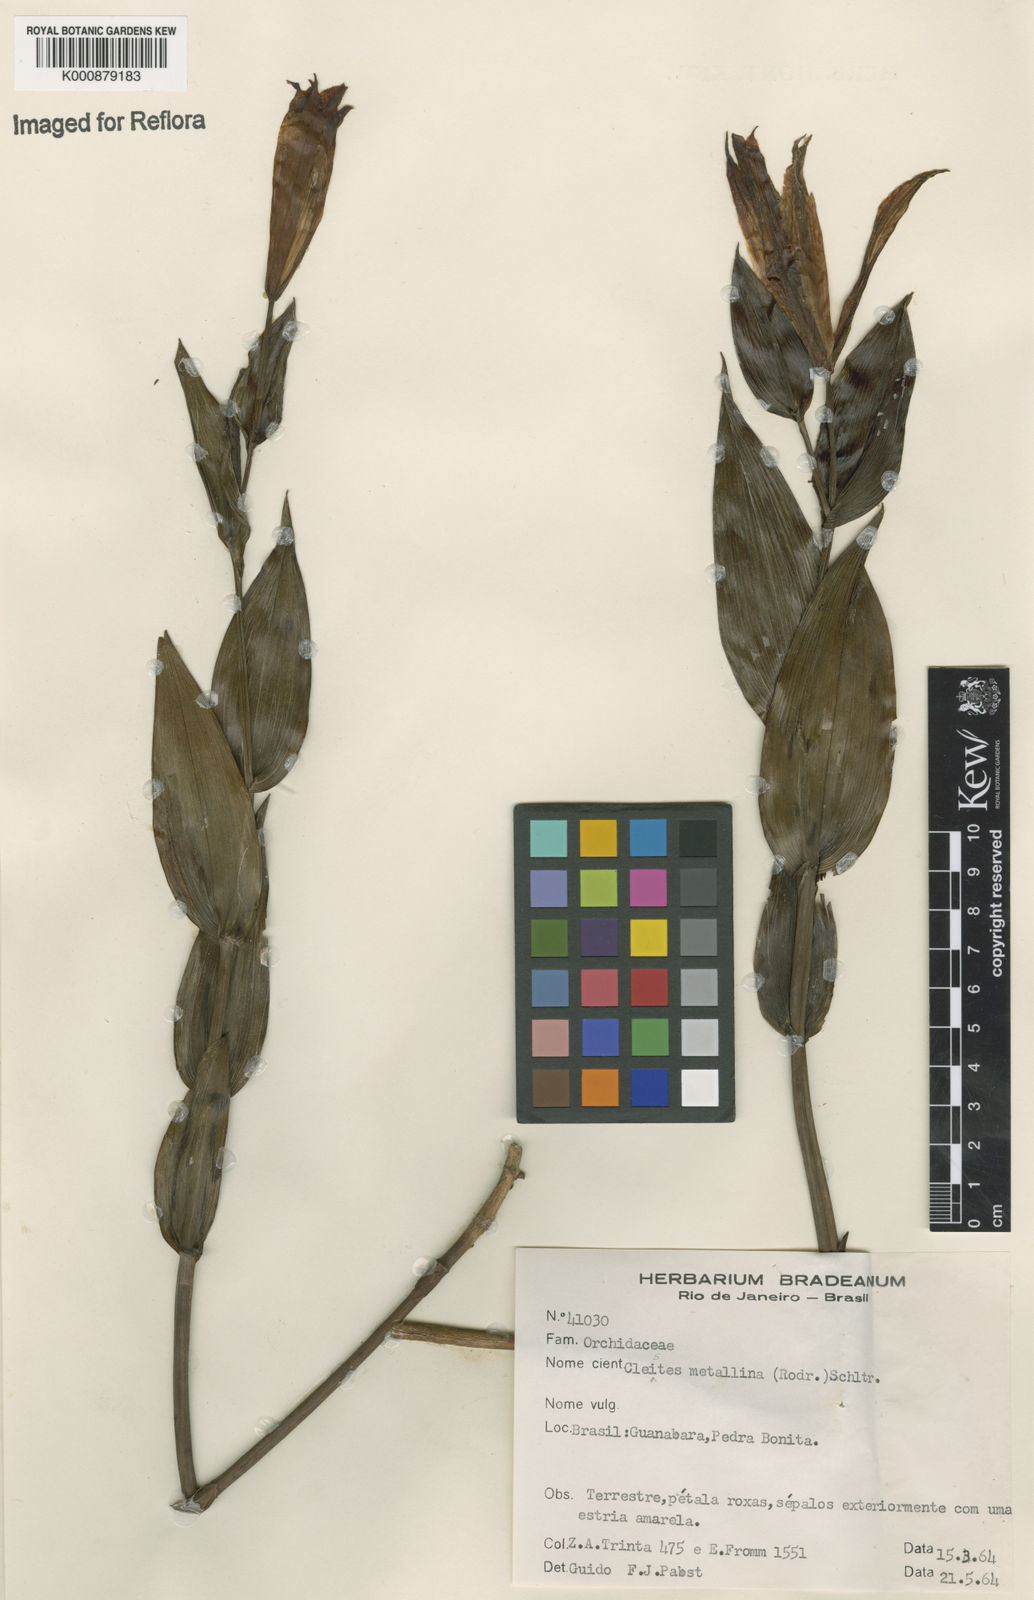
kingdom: Plantae
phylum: Tracheophyta
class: Liliopsida
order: Asparagales
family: Orchidaceae
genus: Cleistes
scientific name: Cleistes speciosa
